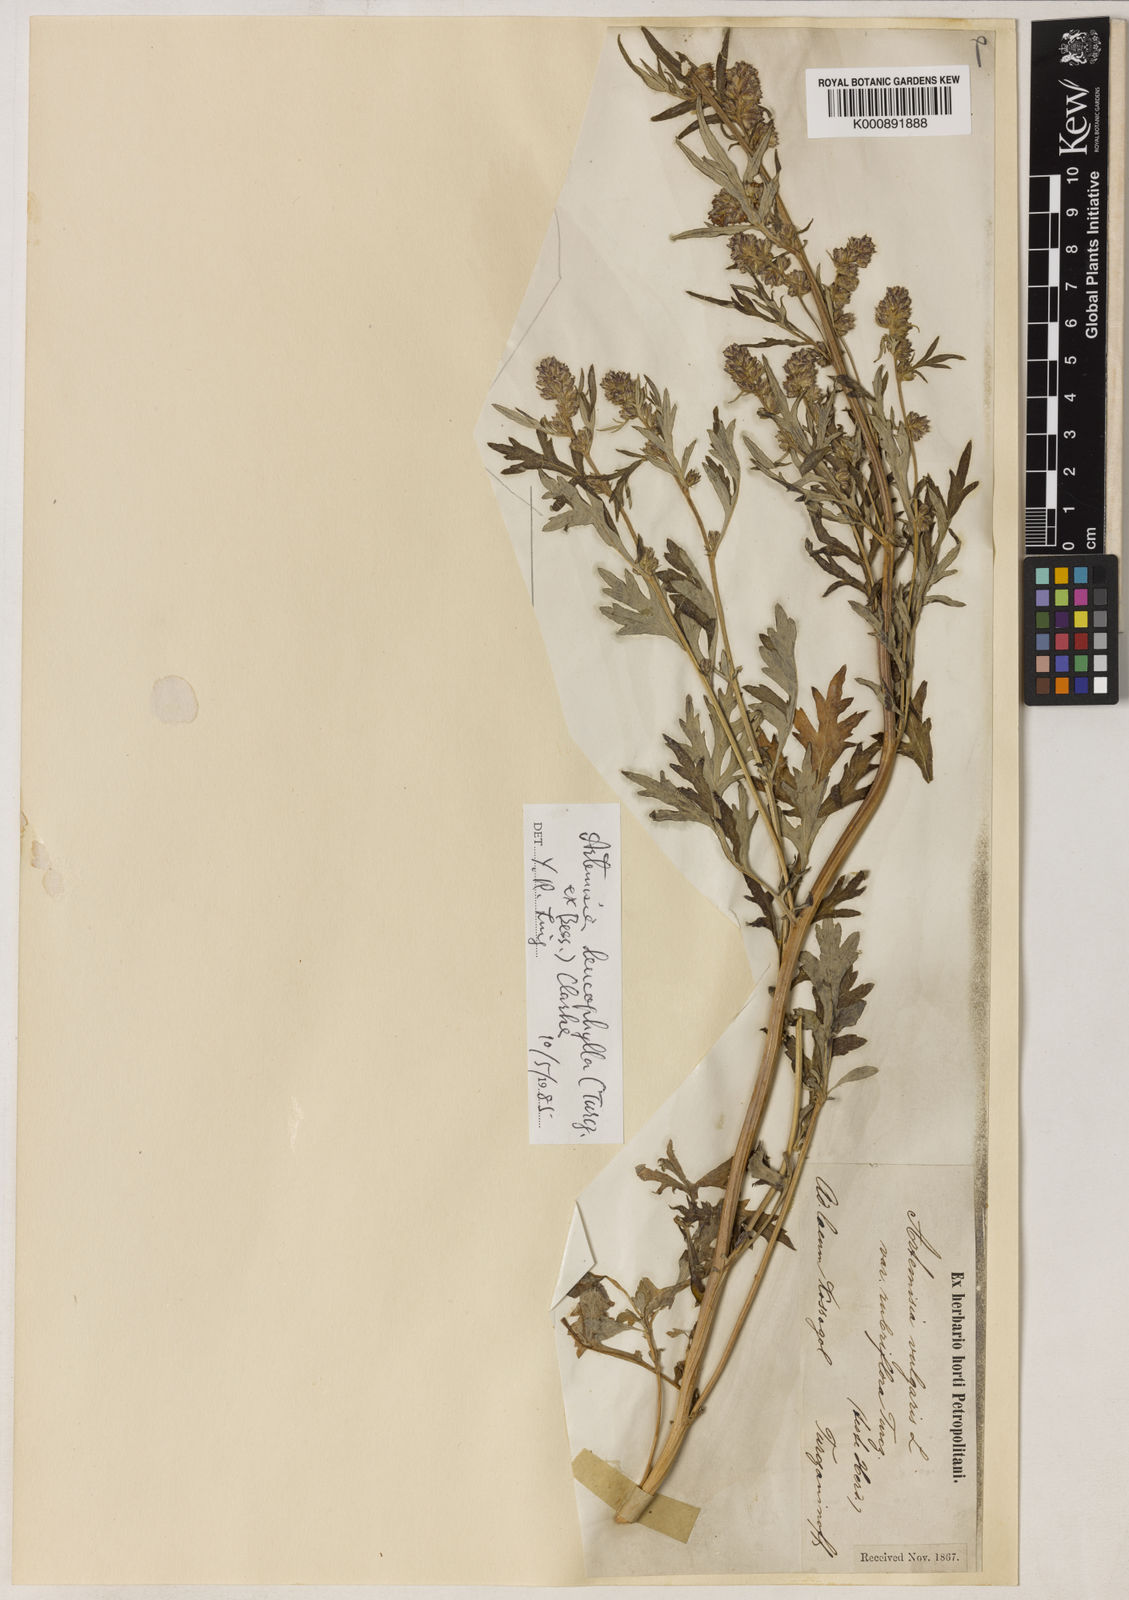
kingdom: Plantae
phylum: Tracheophyta
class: Magnoliopsida
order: Asterales
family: Asteraceae
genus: Artemisia
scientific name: Artemisia leucophylla
